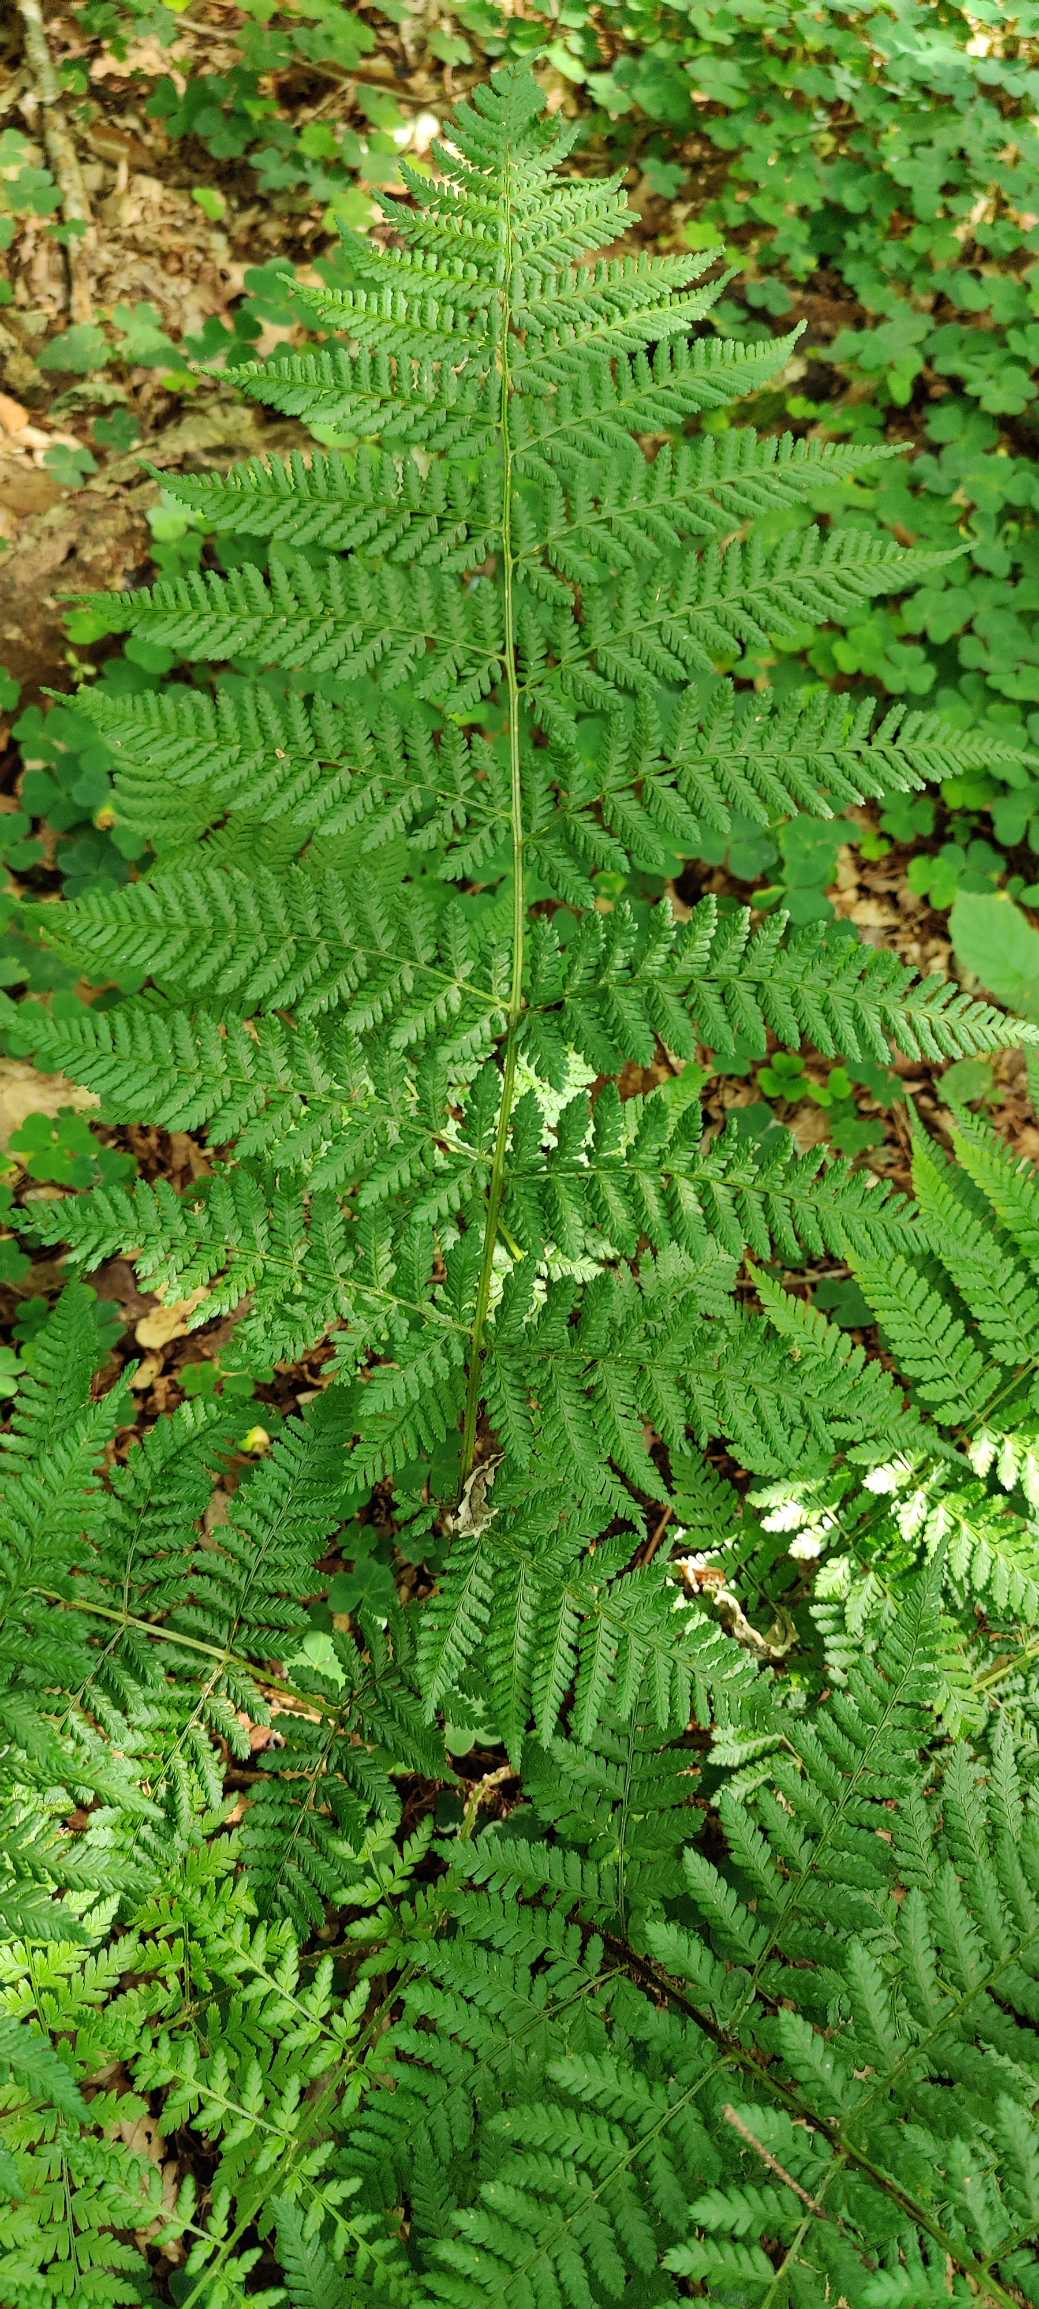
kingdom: Plantae
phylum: Tracheophyta
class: Polypodiopsida
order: Polypodiales
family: Dryopteridaceae
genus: Dryopteris
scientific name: Dryopteris dilatata
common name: Bredbladet mangeløv
